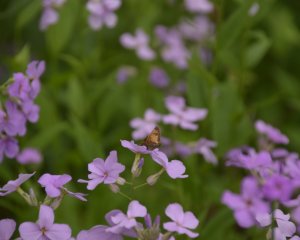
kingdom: Animalia
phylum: Arthropoda
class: Insecta
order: Lepidoptera
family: Hesperiidae
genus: Lon
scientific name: Lon hobomok
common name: Hobomok Skipper
